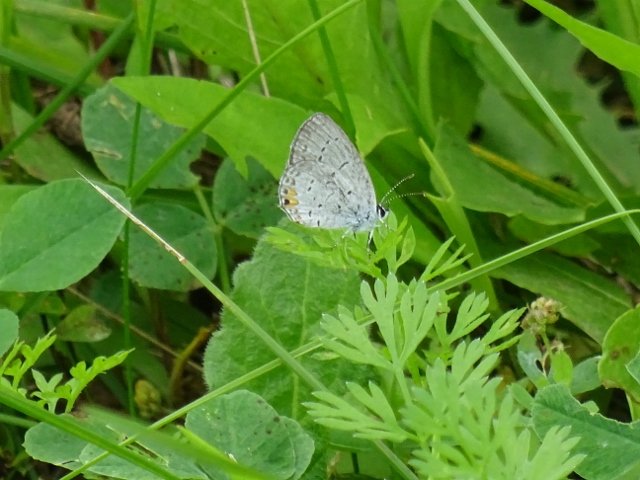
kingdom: Animalia
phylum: Arthropoda
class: Insecta
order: Lepidoptera
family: Lycaenidae
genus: Elkalyce
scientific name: Elkalyce comyntas
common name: Eastern Tailed-Blue
